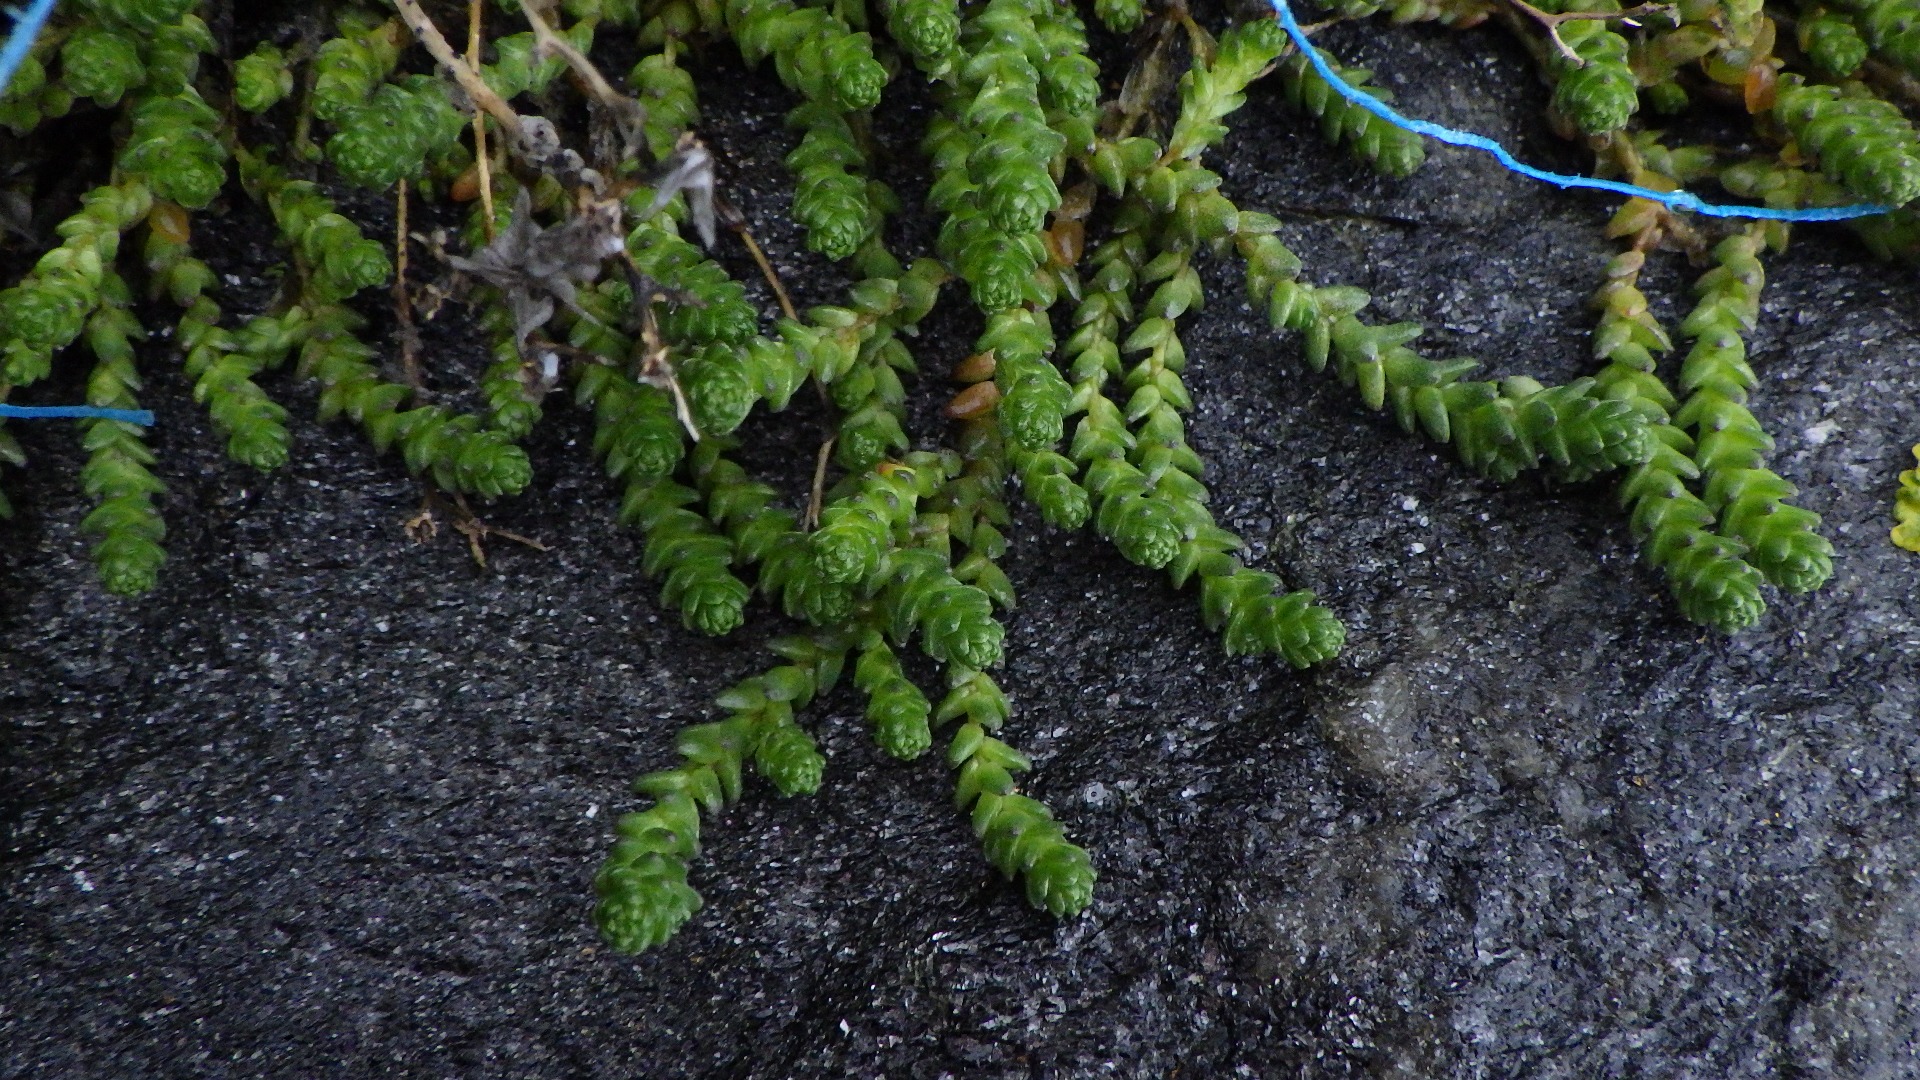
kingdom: Plantae
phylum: Tracheophyta
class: Magnoliopsida
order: Saxifragales
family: Crassulaceae
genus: Sedum
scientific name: Sedum acre
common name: Bidende stenurt
